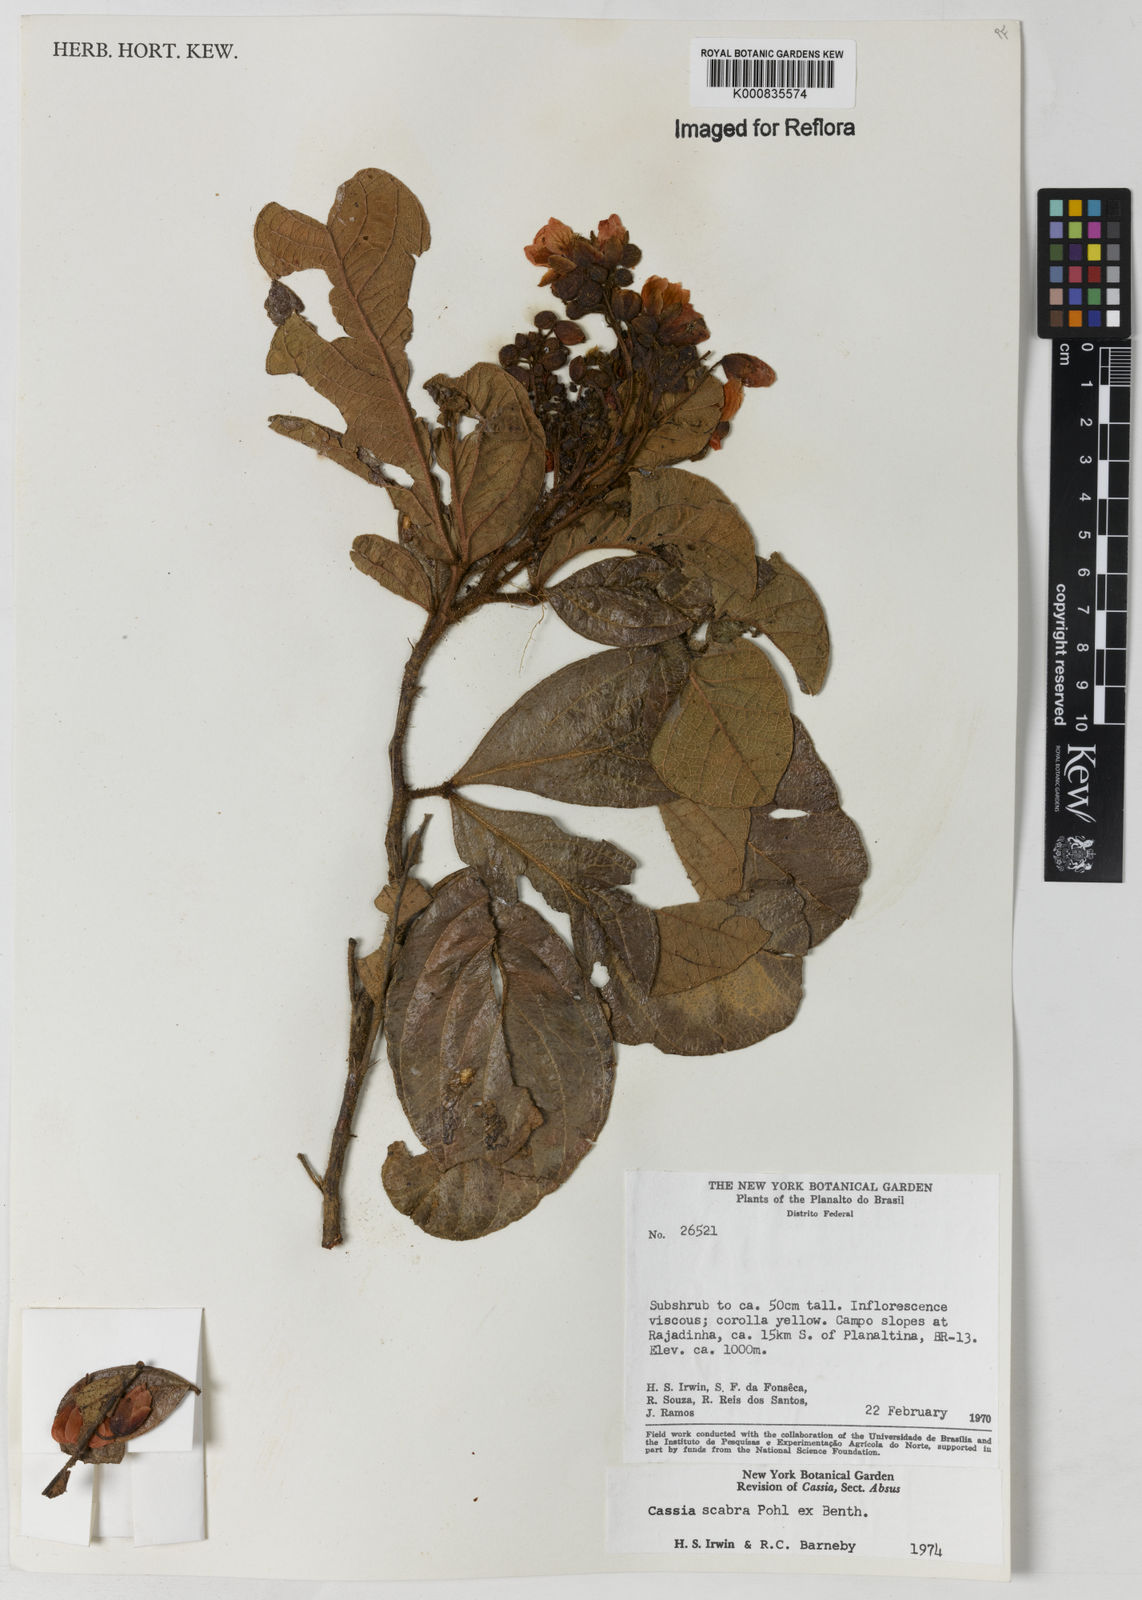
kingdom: Plantae
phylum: Tracheophyta
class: Magnoliopsida
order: Fabales
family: Fabaceae
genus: Chamaecrista
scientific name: Chamaecrista scabra
